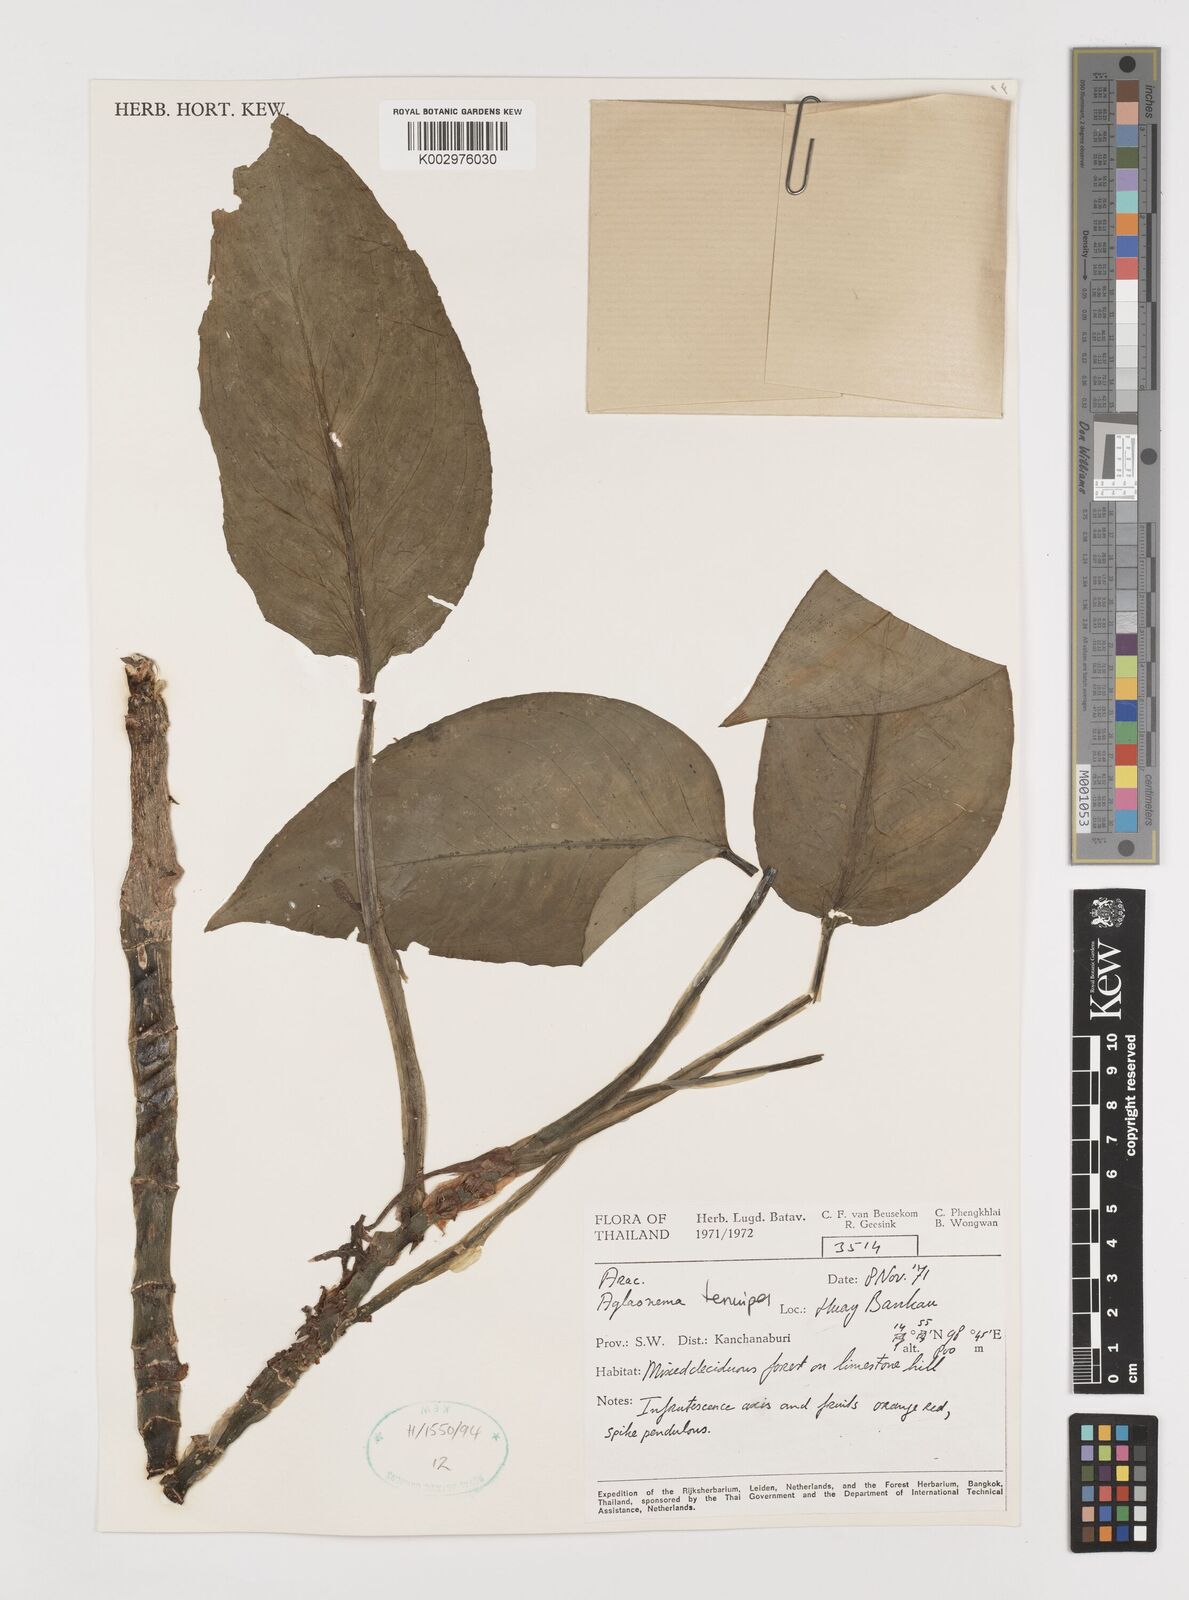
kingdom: Plantae
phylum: Tracheophyta
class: Liliopsida
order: Alismatales
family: Araceae
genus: Aglaonema
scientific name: Aglaonema simplex
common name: Malayan-sword
